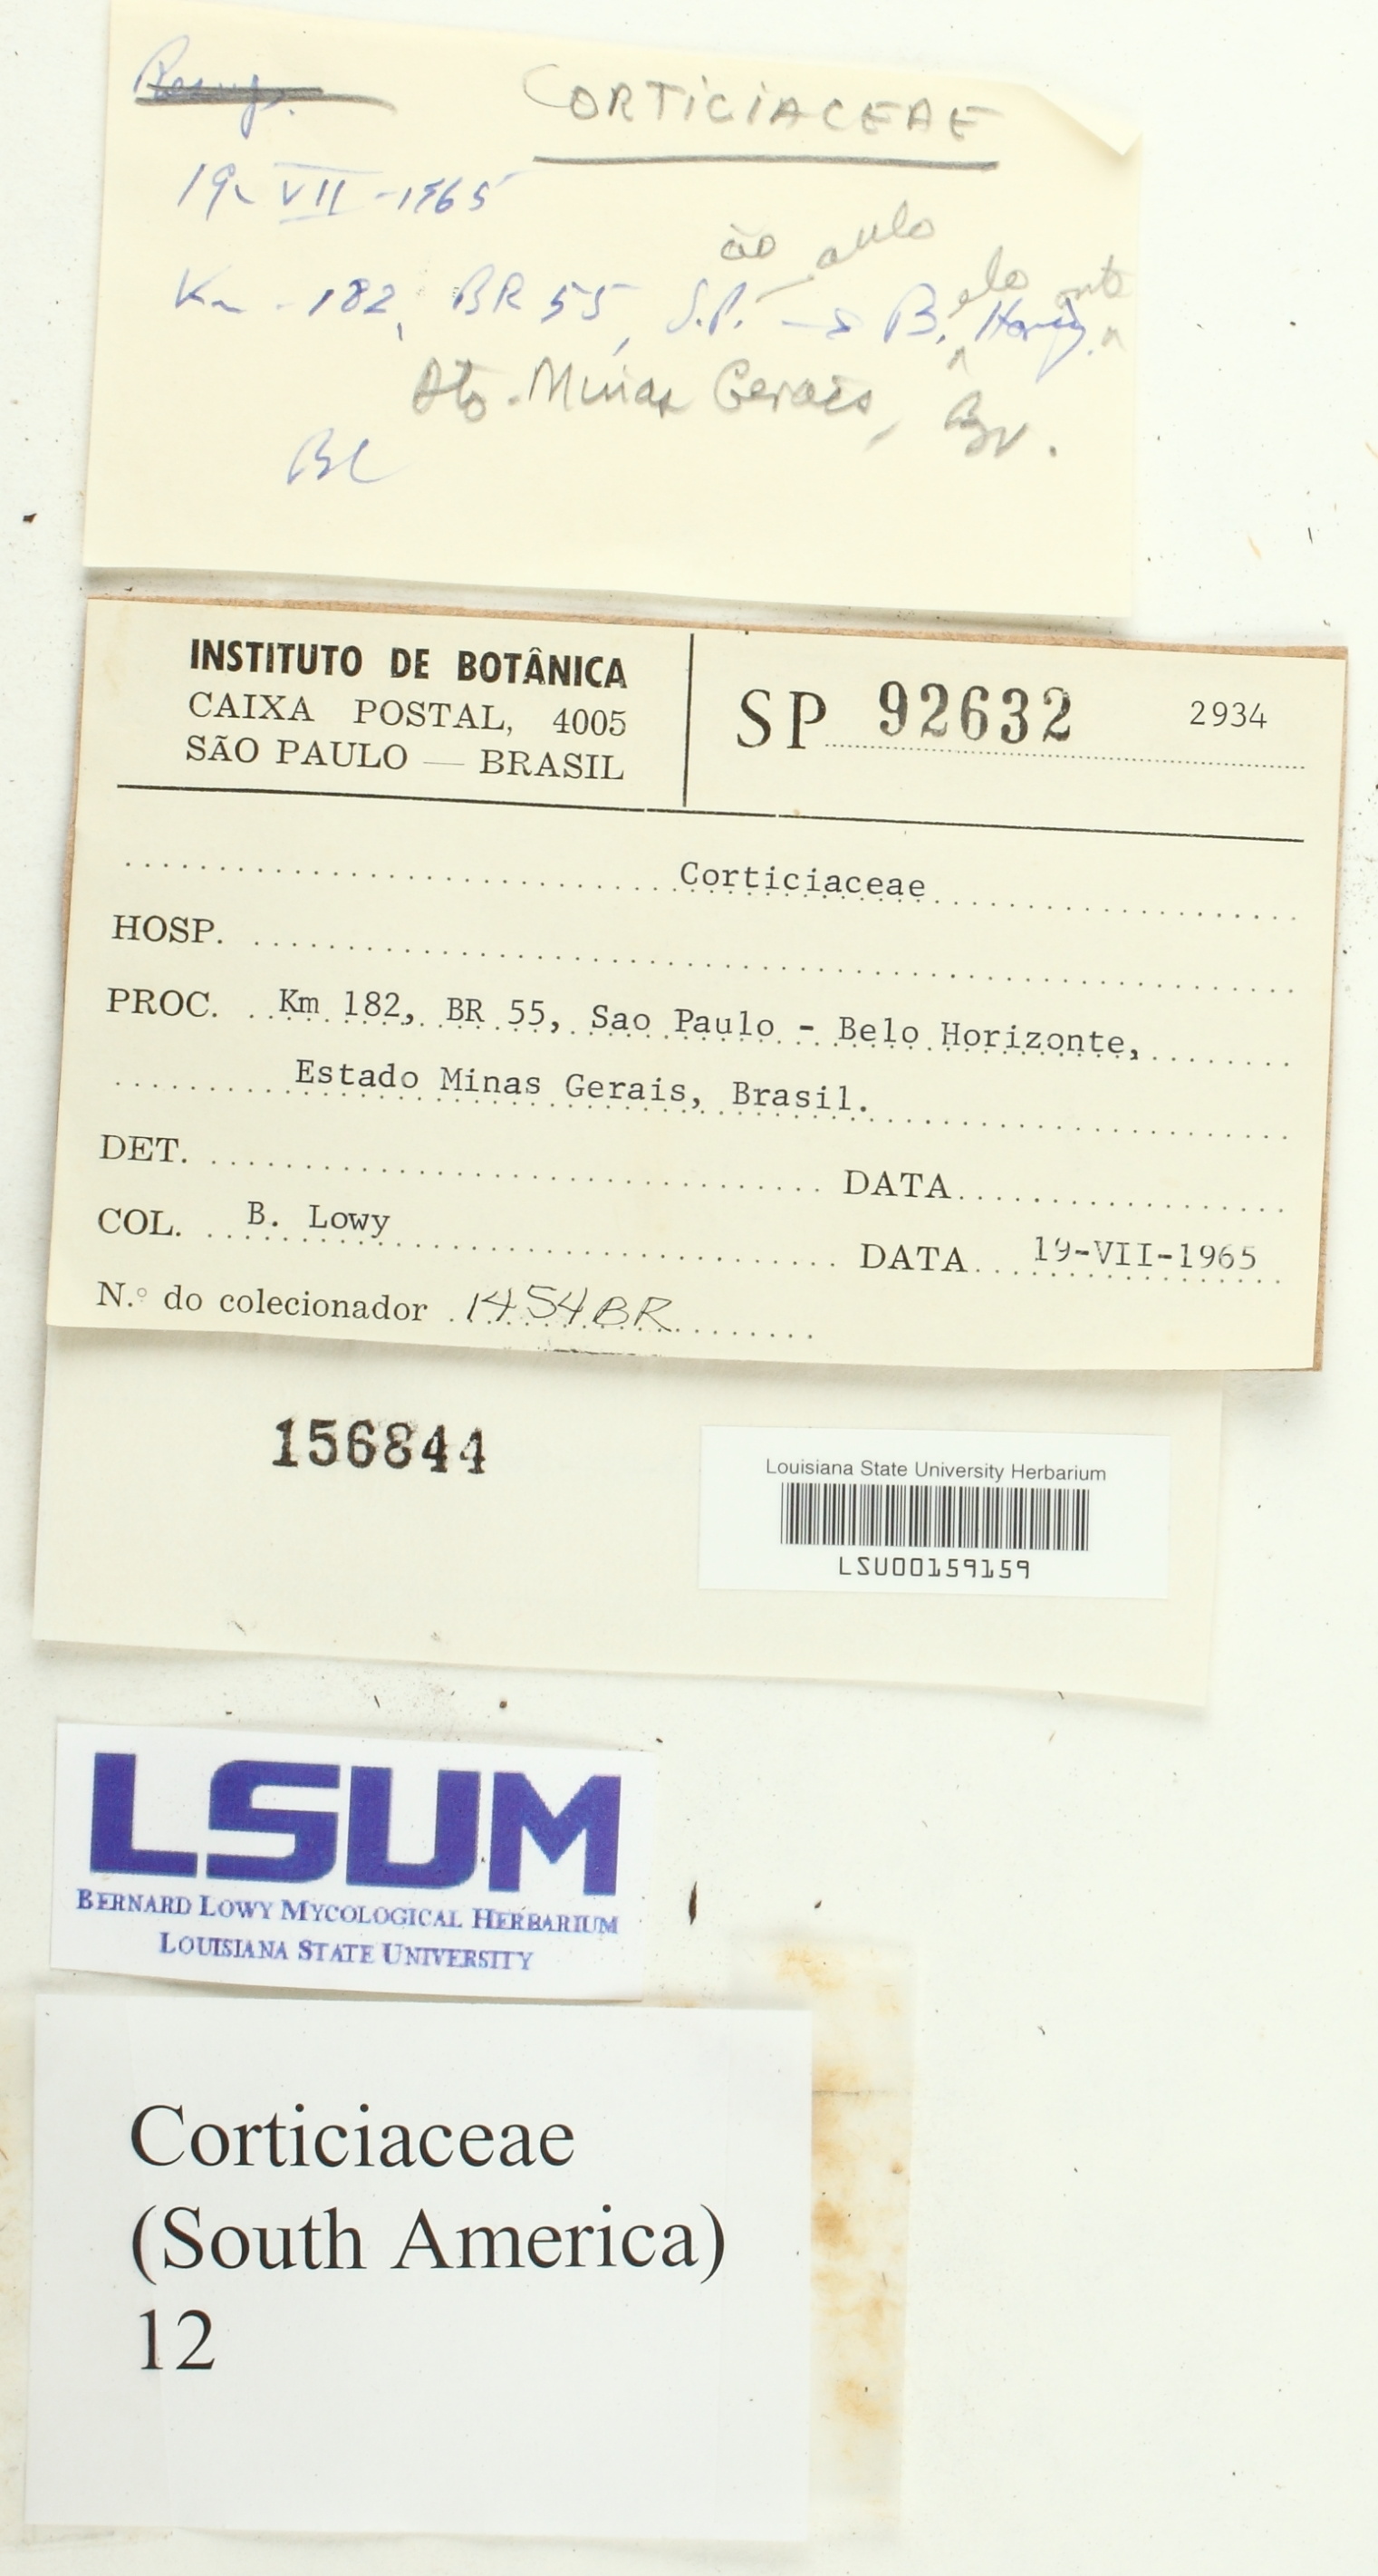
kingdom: Fungi
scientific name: Fungi
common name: Fungi
